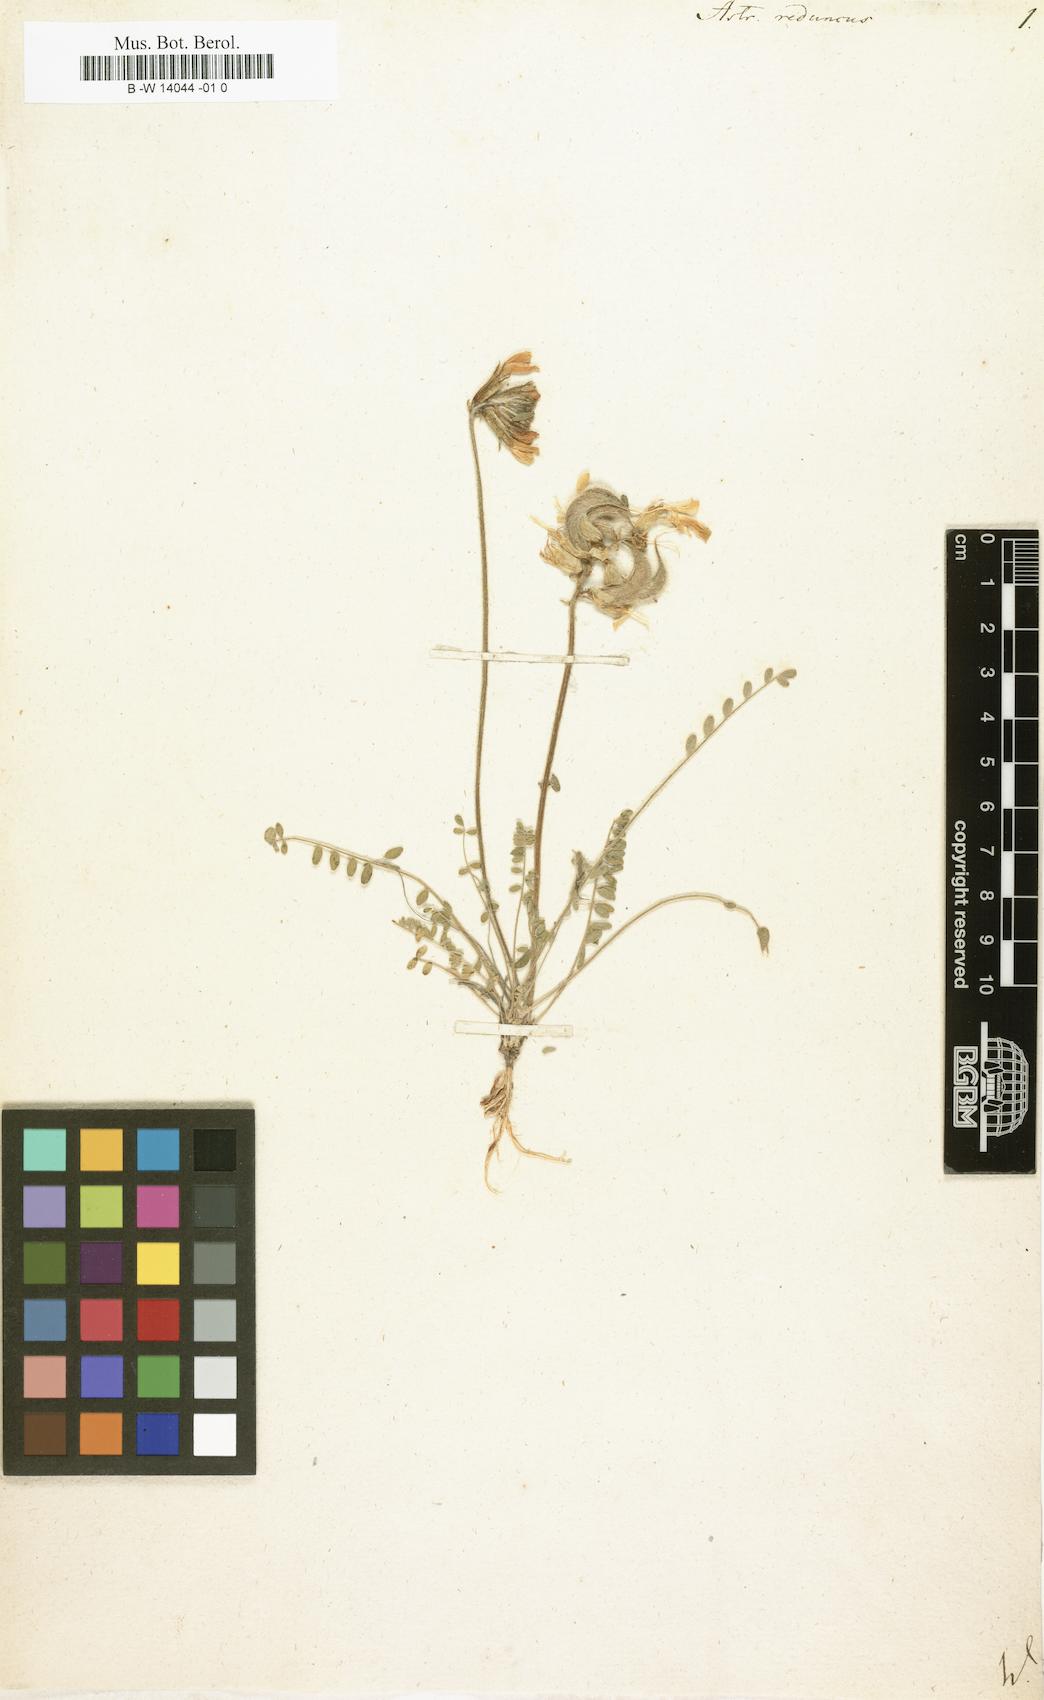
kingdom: Plantae
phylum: Tracheophyta
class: Magnoliopsida
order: Fabales
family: Fabaceae
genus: Astragalus
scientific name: Astragalus reduncus
